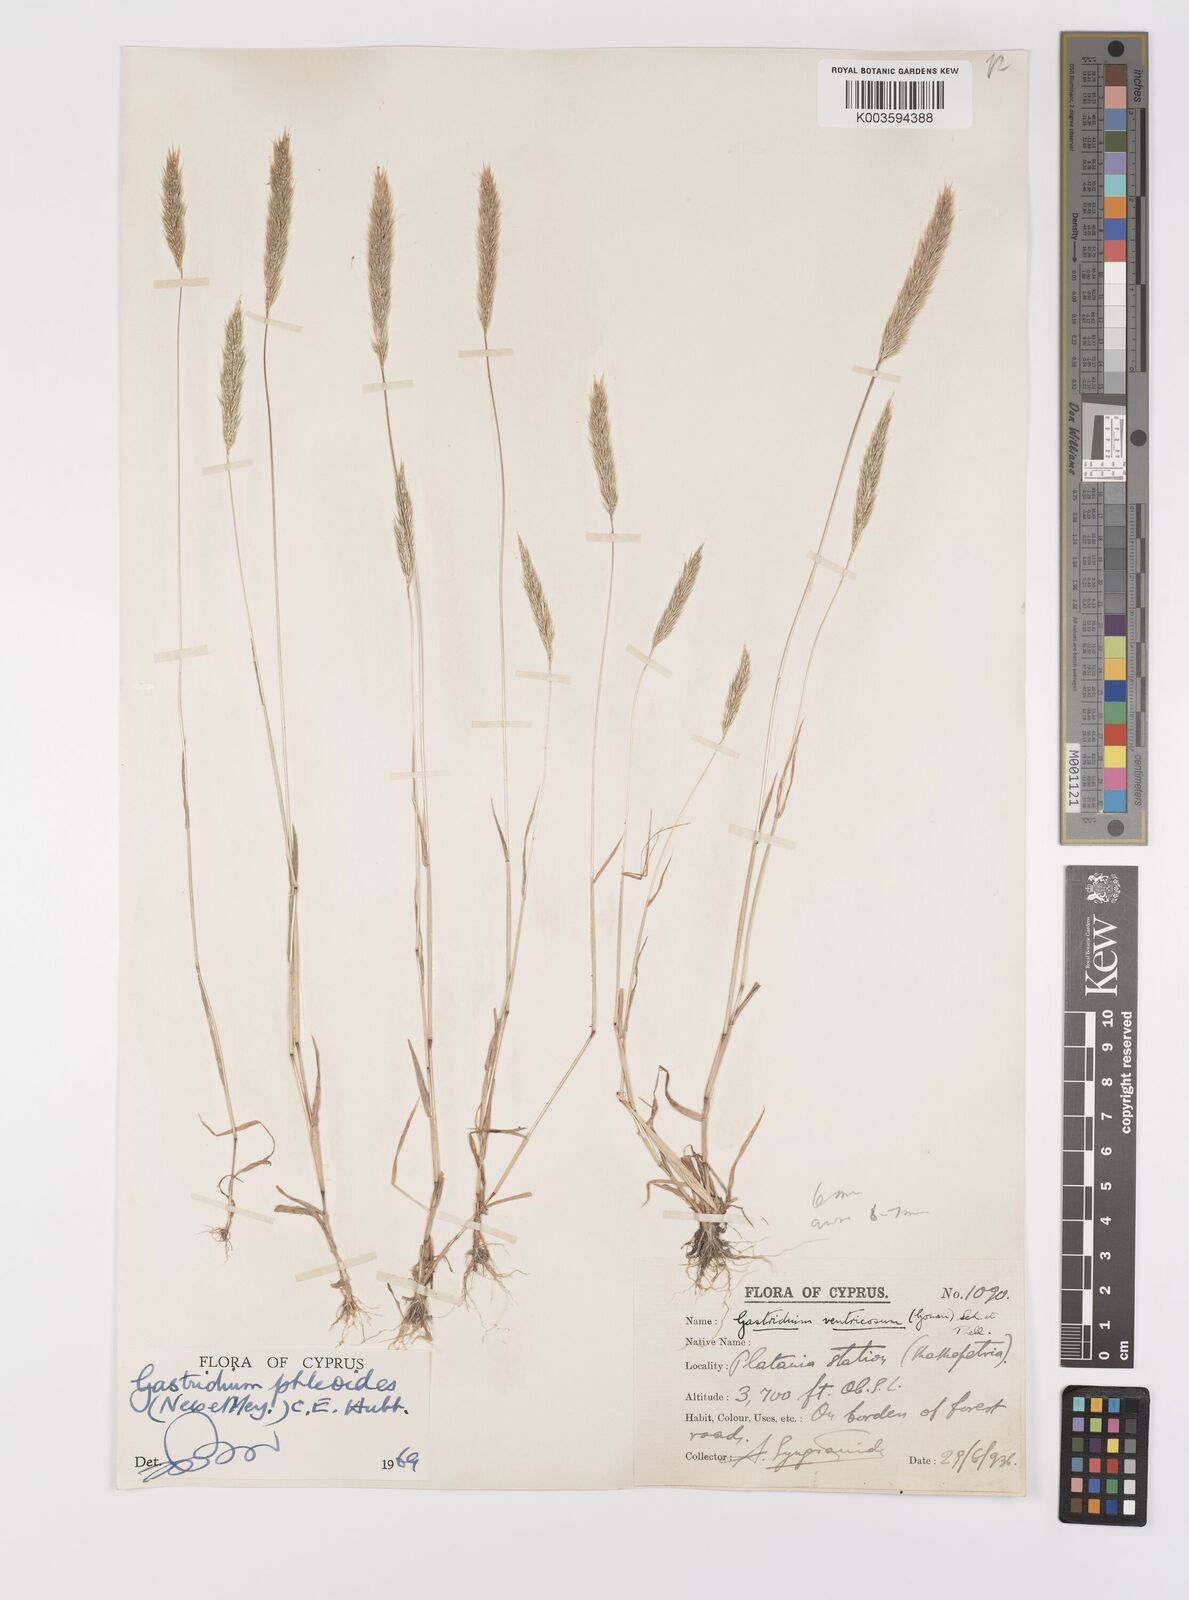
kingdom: Plantae
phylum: Tracheophyta
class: Liliopsida
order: Poales
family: Poaceae
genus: Gastridium
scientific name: Gastridium phleoides
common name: Nit grass
